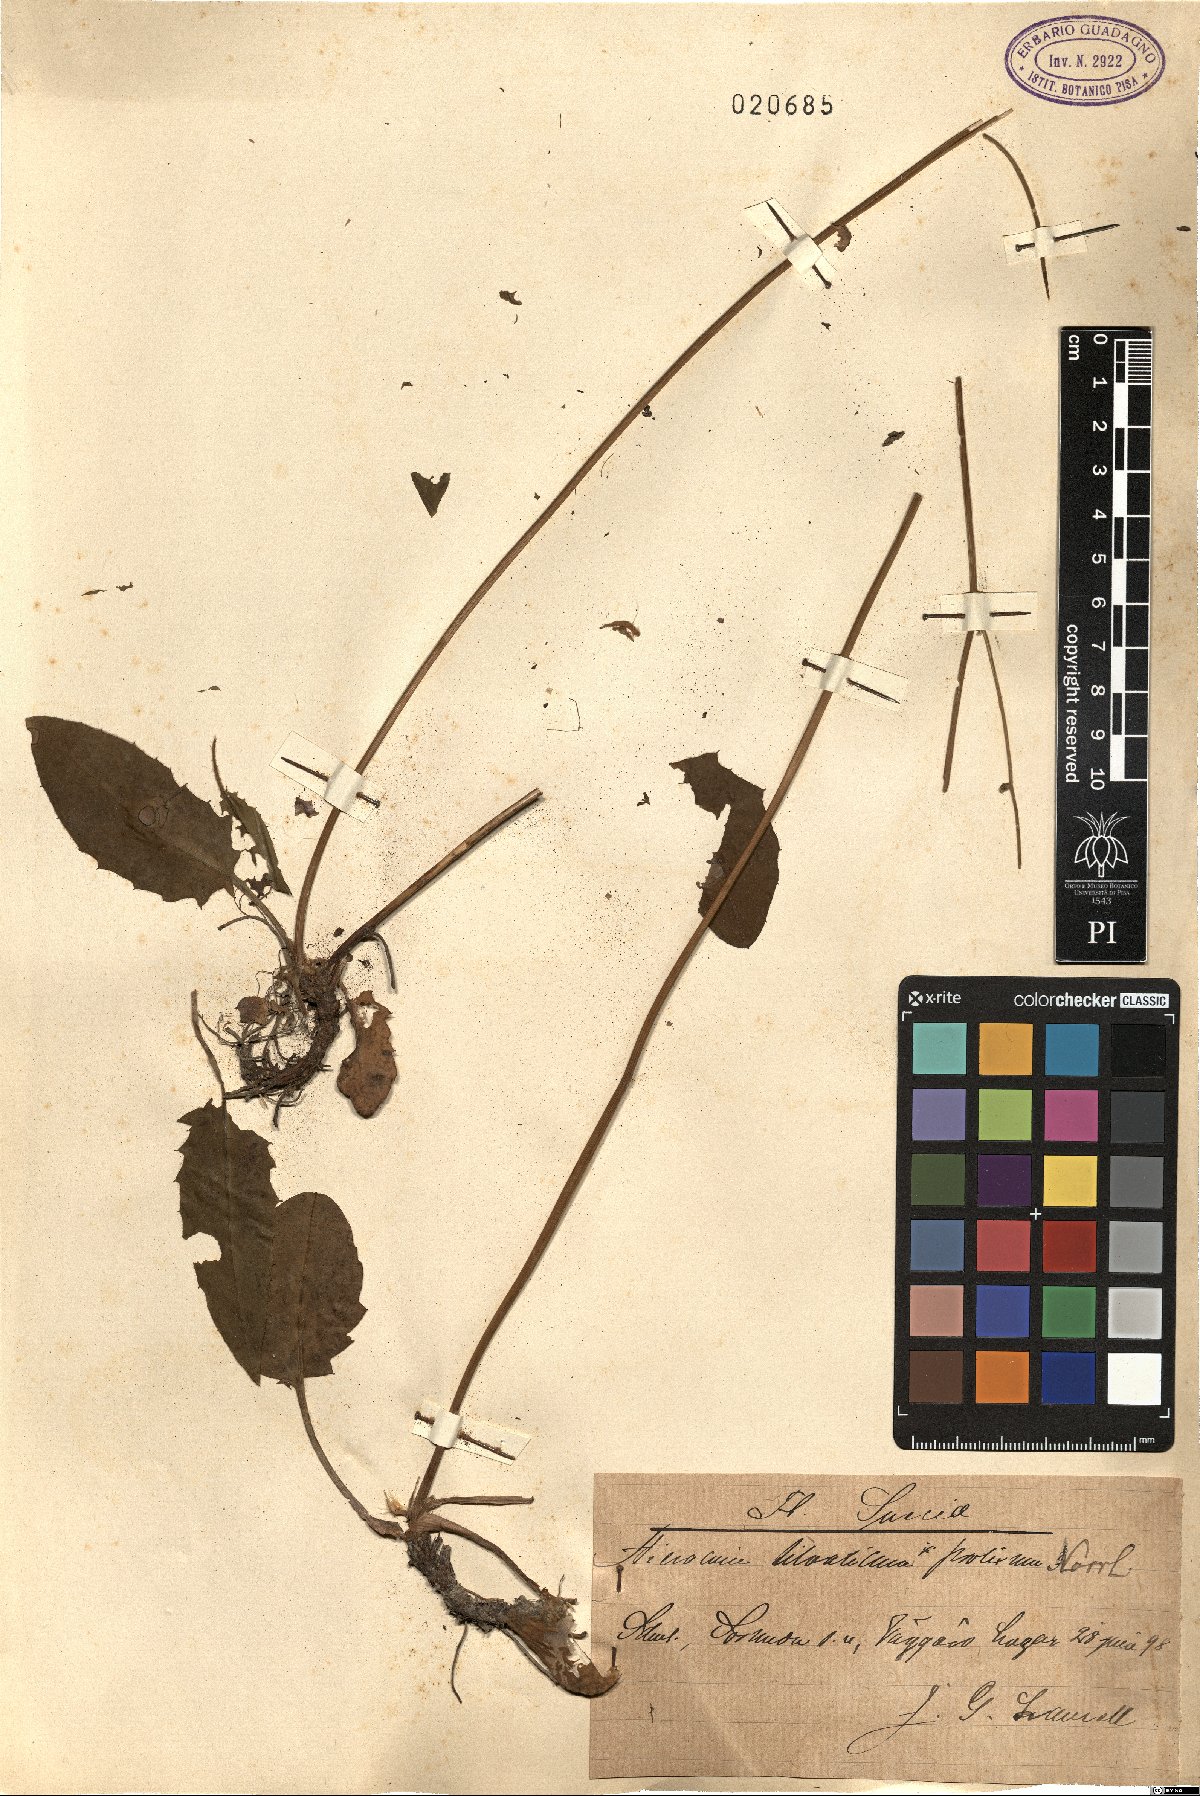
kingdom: Plantae
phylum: Tracheophyta
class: Magnoliopsida
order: Asterales
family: Asteraceae
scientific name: Asteraceae
